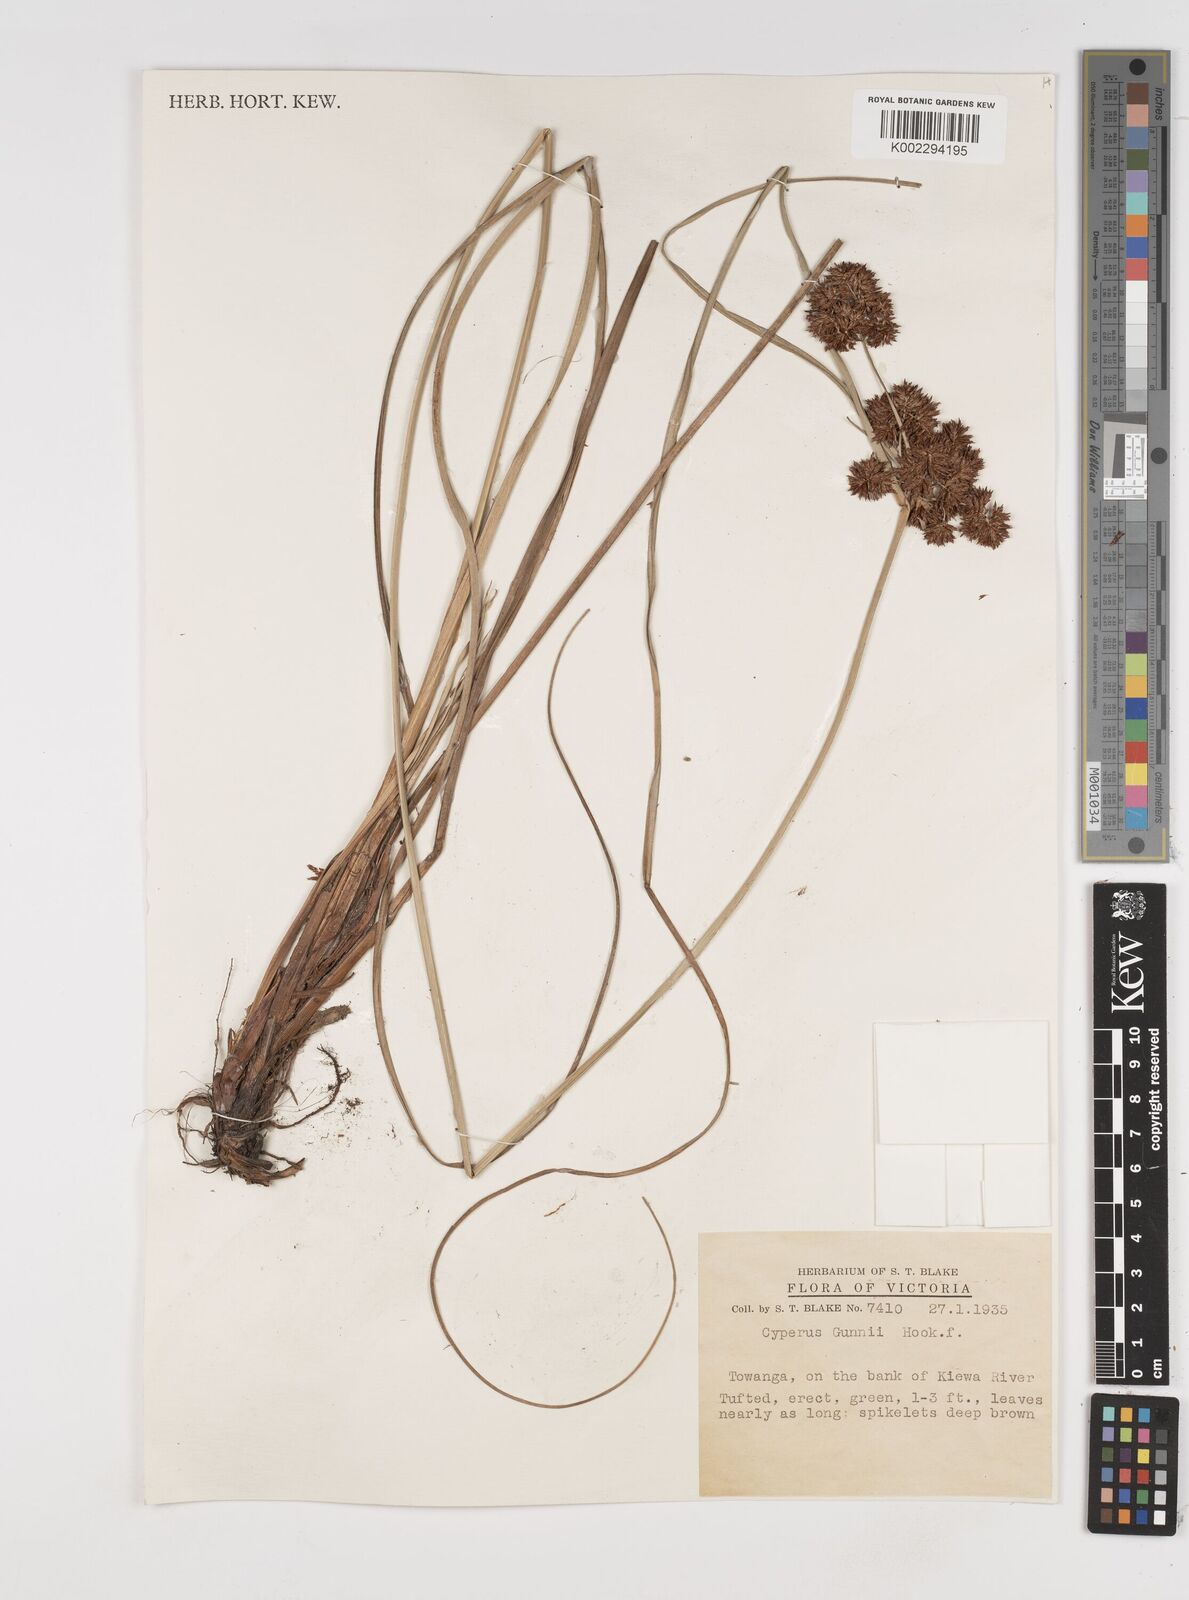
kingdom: Plantae
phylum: Tracheophyta
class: Liliopsida
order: Poales
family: Cyperaceae
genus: Cyperus
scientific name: Cyperus gunnii
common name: Flecked flat-sedge
